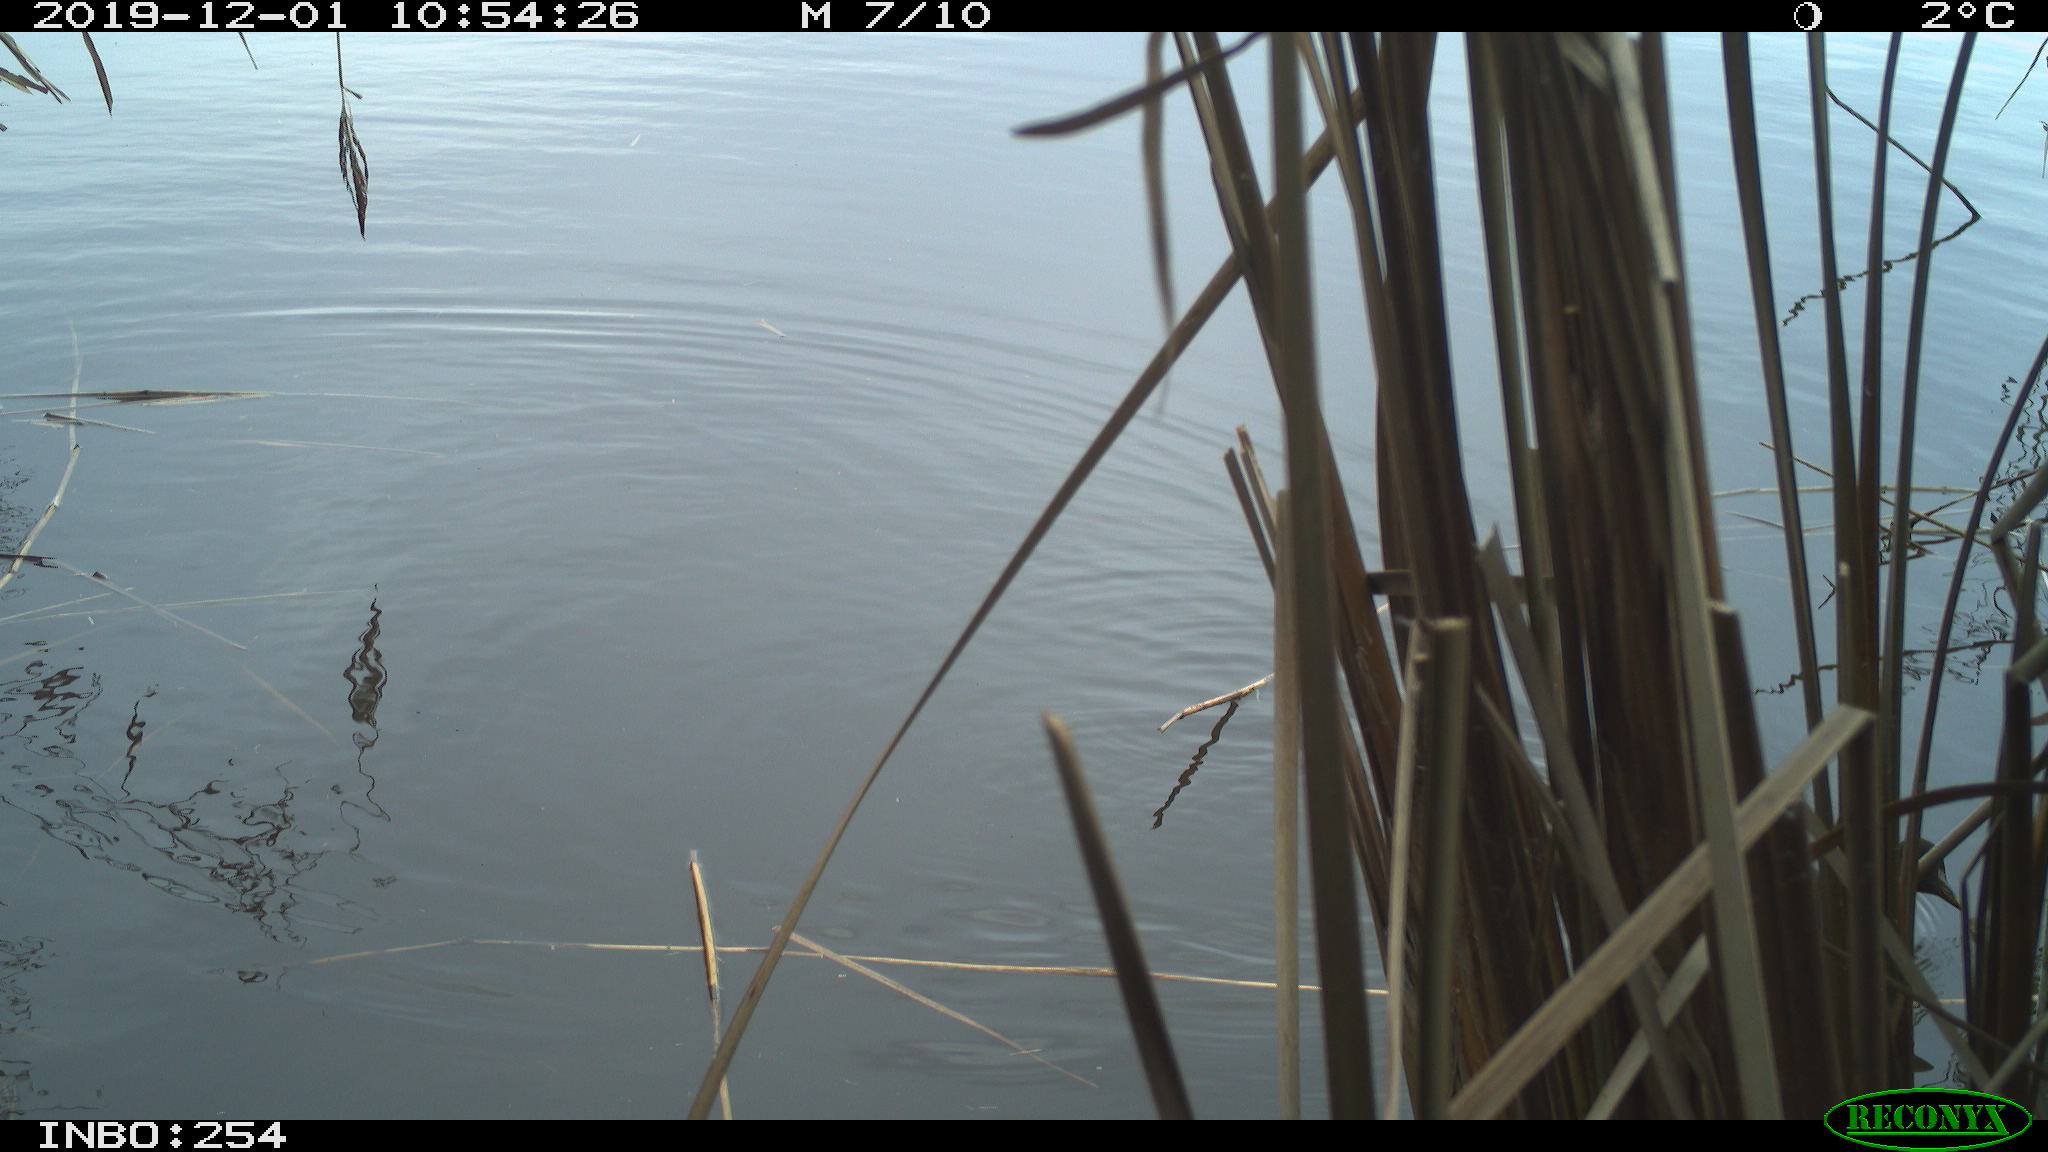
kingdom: Animalia
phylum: Chordata
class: Aves
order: Gruiformes
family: Rallidae
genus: Gallinula
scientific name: Gallinula chloropus
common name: Common moorhen
